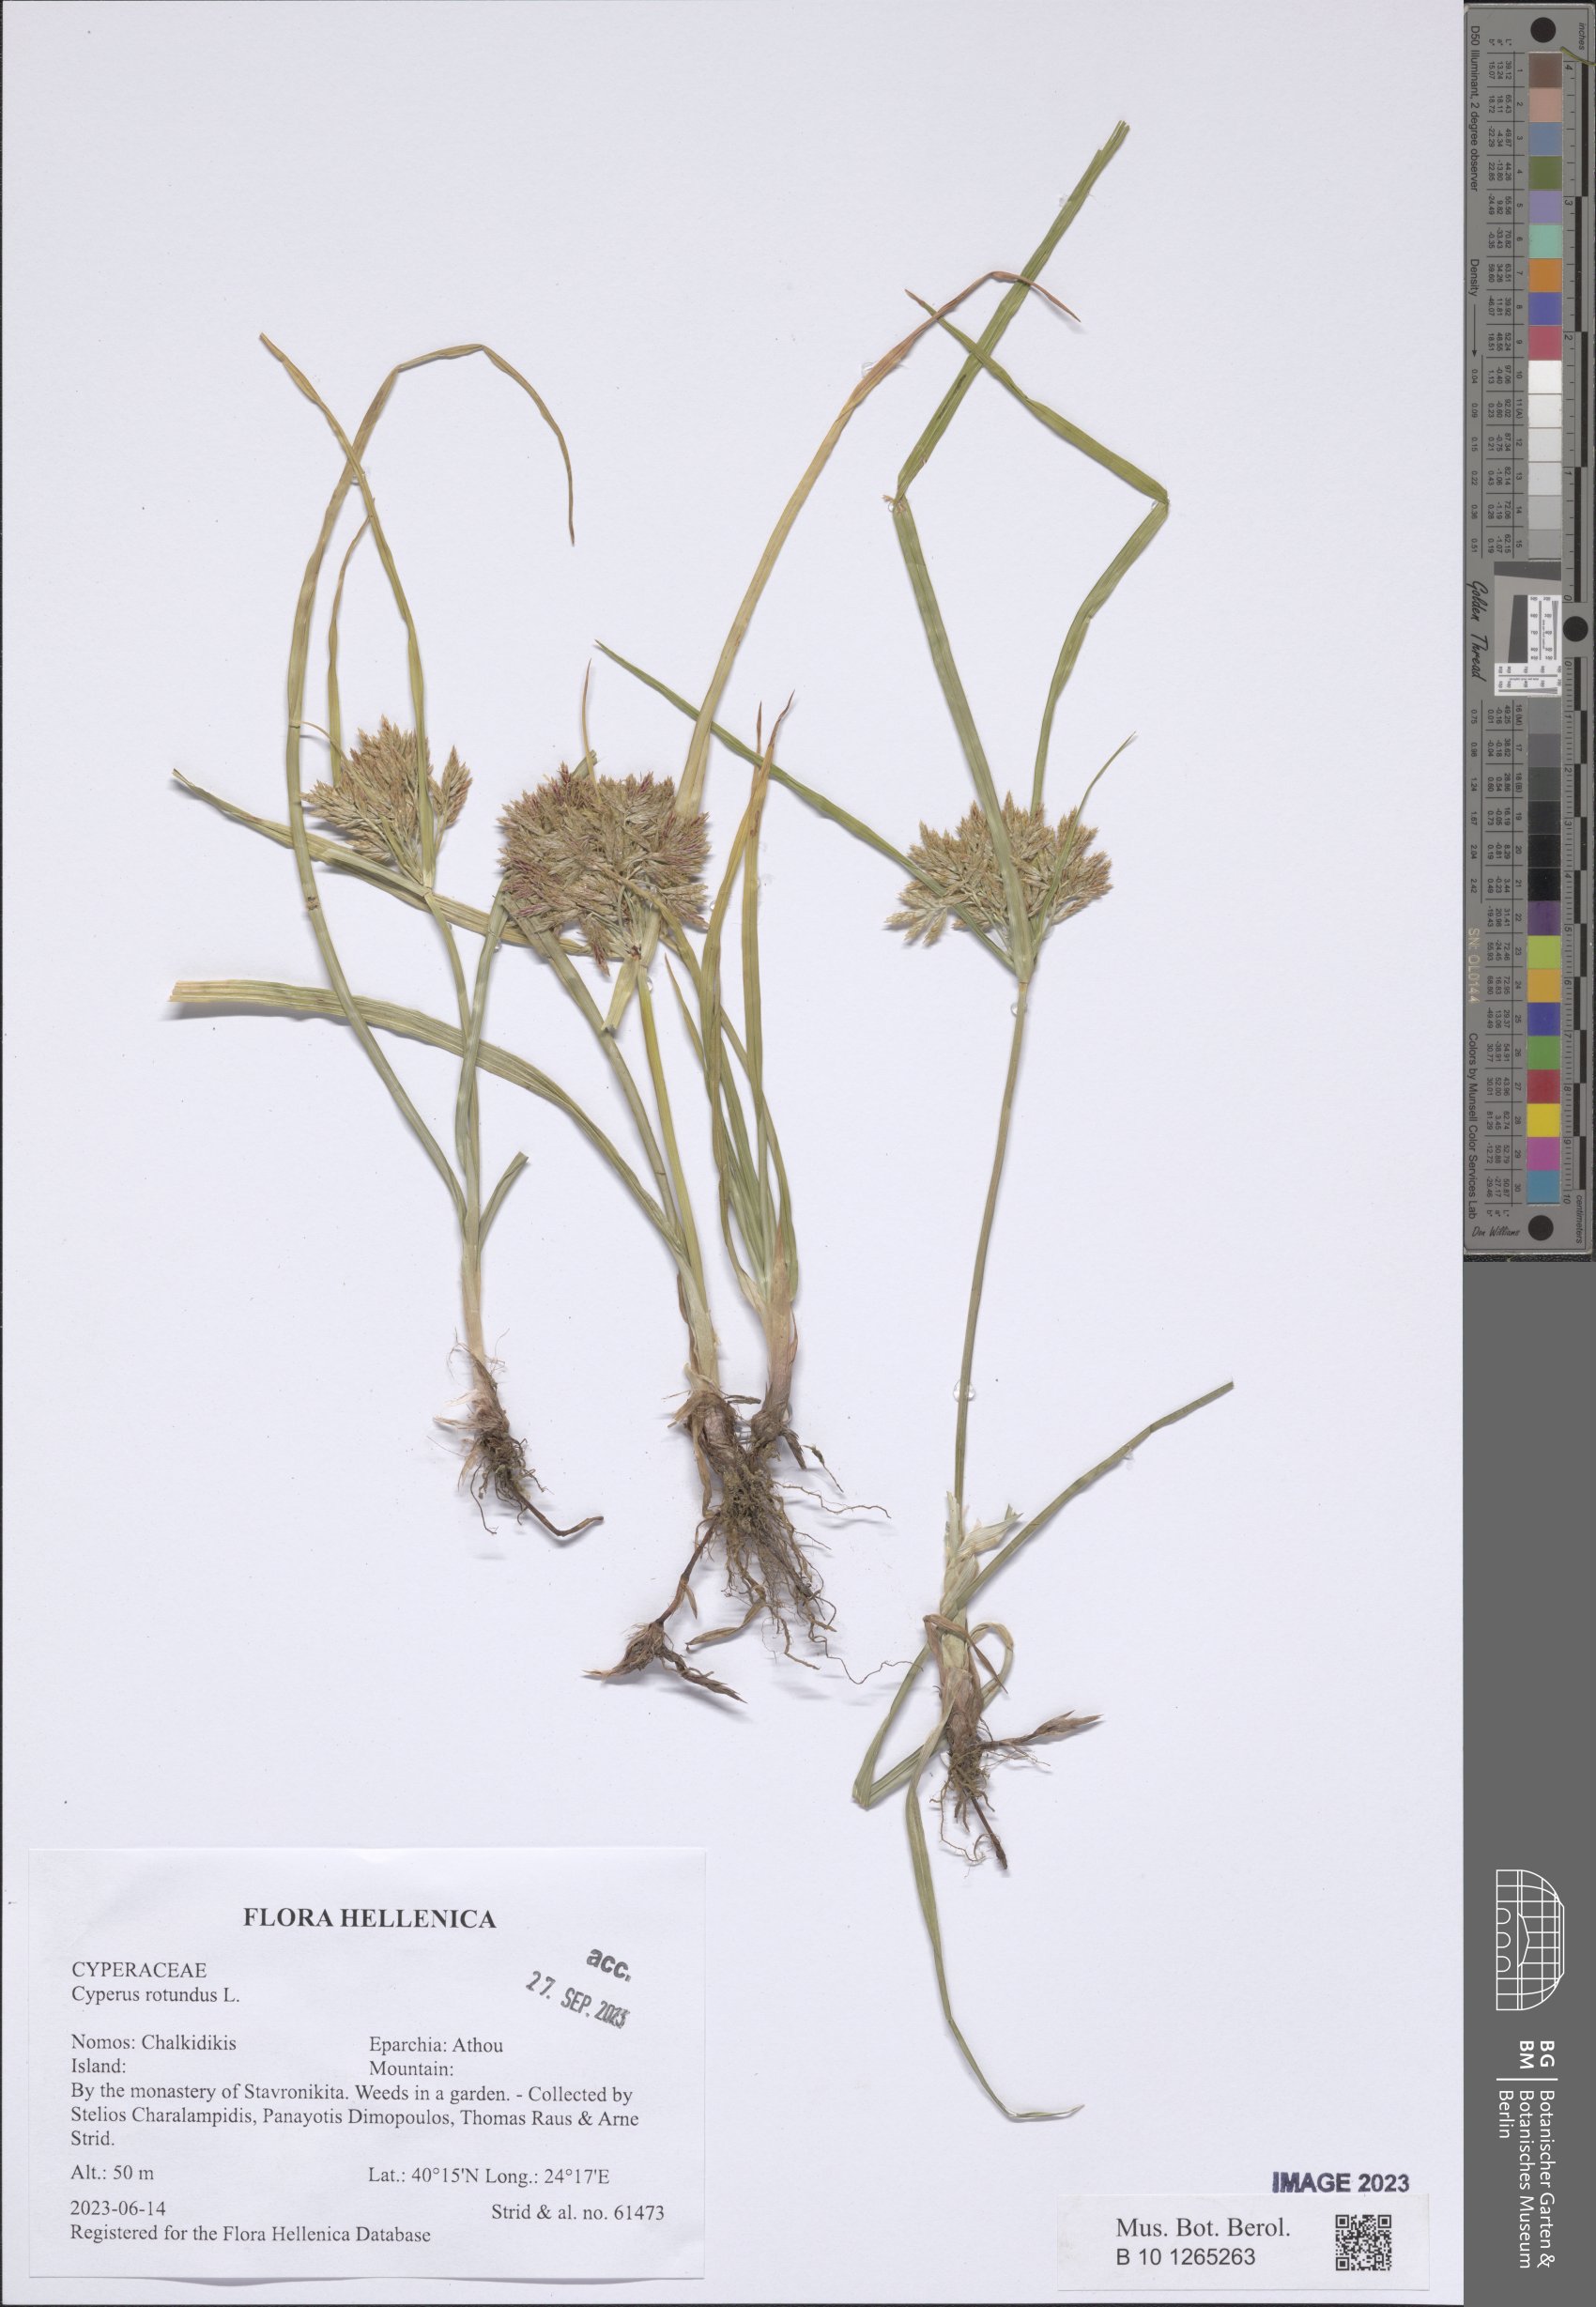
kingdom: Plantae
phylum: Tracheophyta
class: Liliopsida
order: Poales
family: Cyperaceae
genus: Cyperus
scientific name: Cyperus rotundus
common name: Nutgrass
